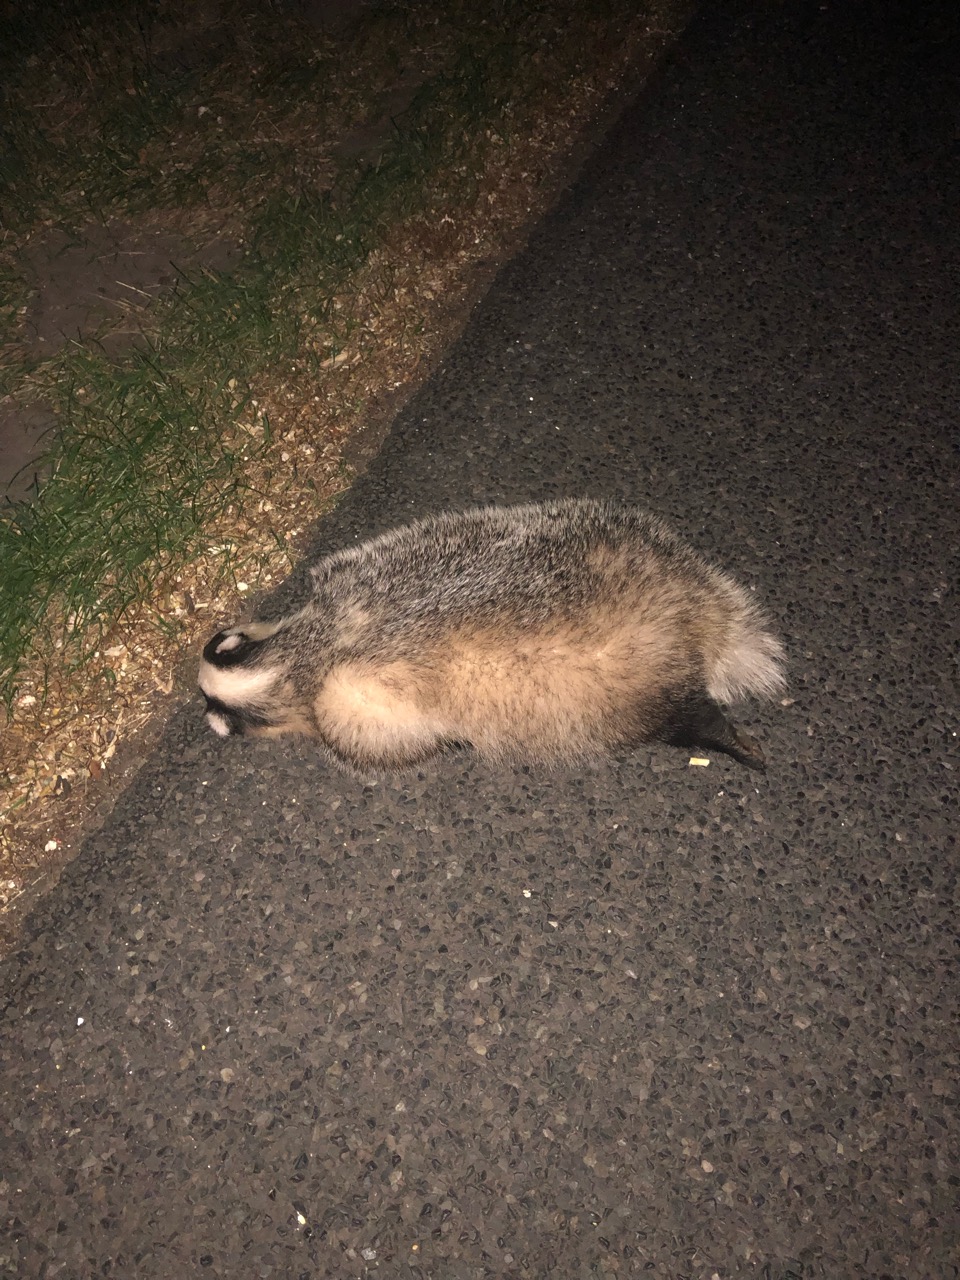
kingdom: Animalia
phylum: Chordata
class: Mammalia
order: Carnivora
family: Mustelidae
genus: Meles
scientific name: Meles meles
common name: Eurasian badger
